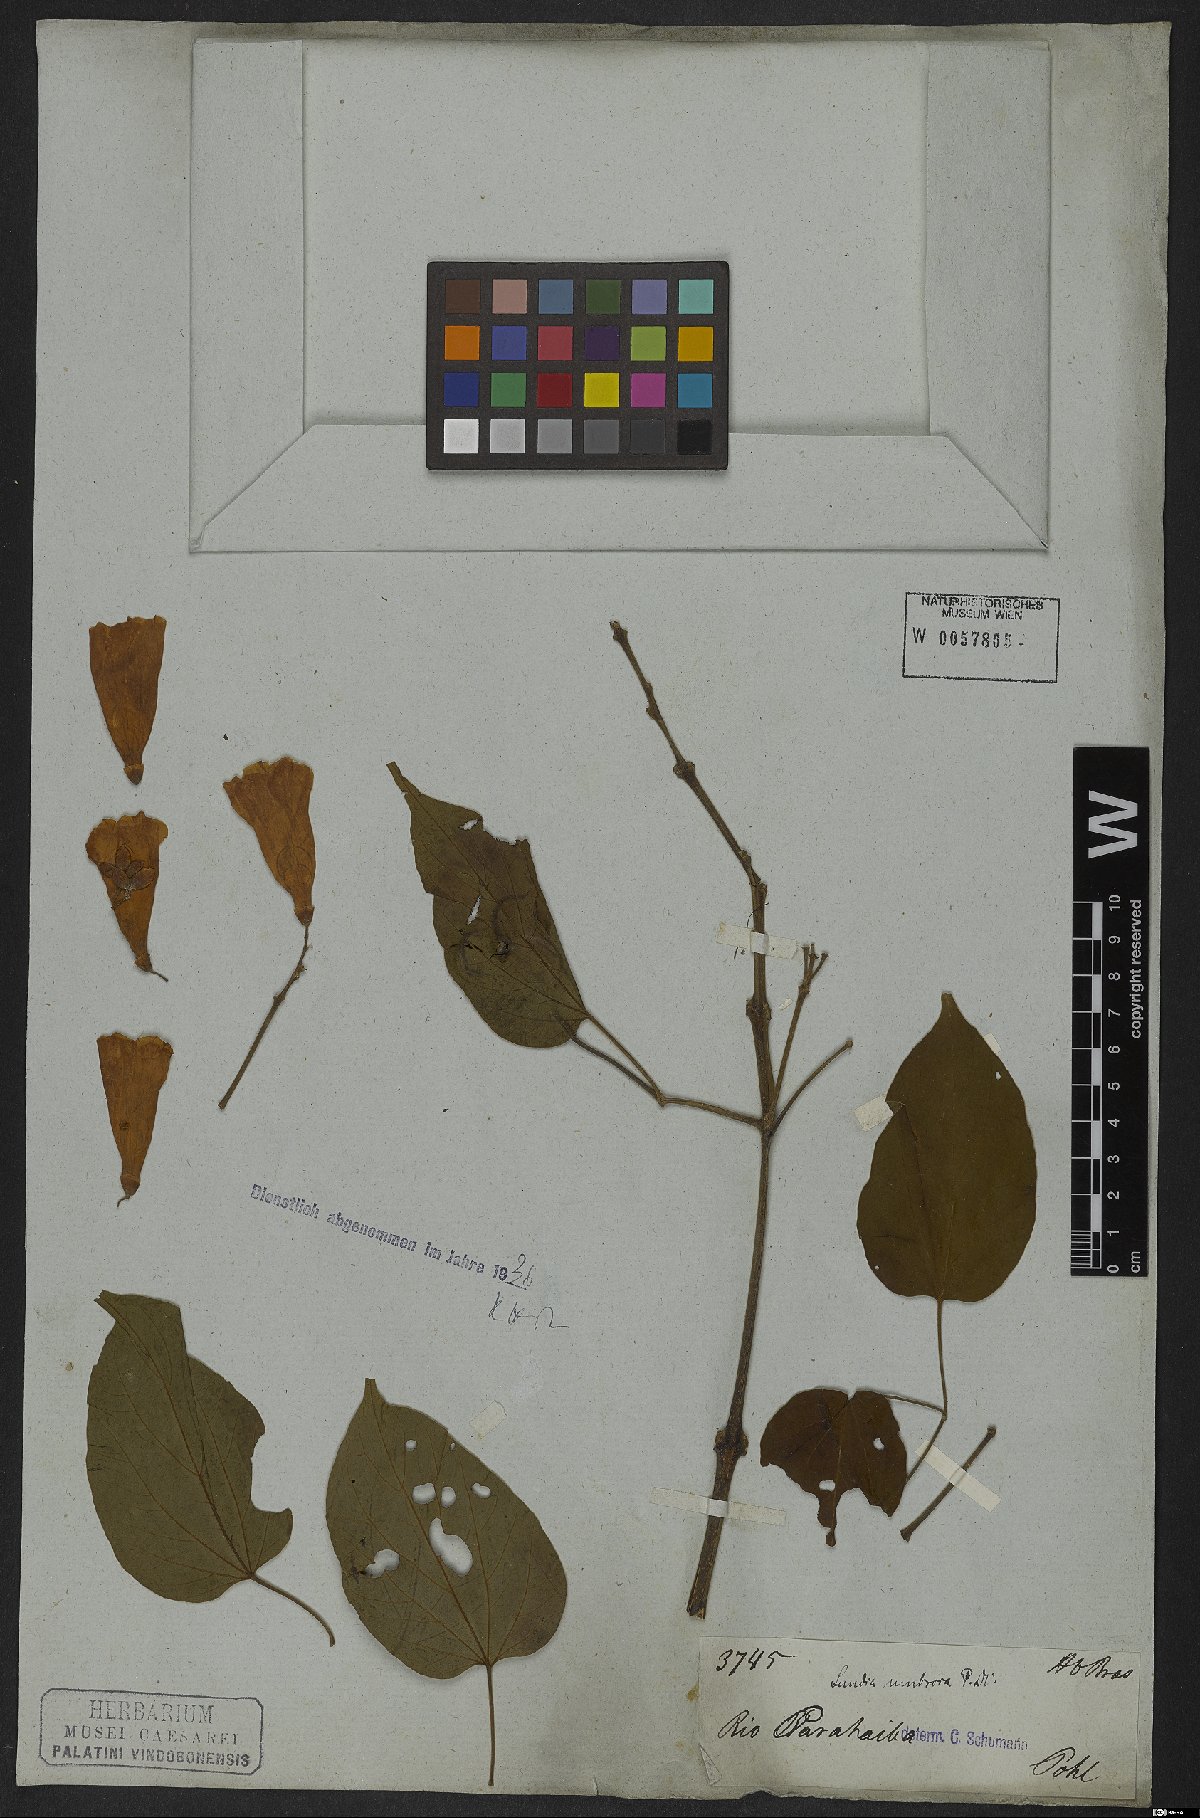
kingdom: Plantae
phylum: Tracheophyta
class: Magnoliopsida
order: Lamiales
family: Bignoniaceae
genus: Lundia
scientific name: Lundia corymbifera
